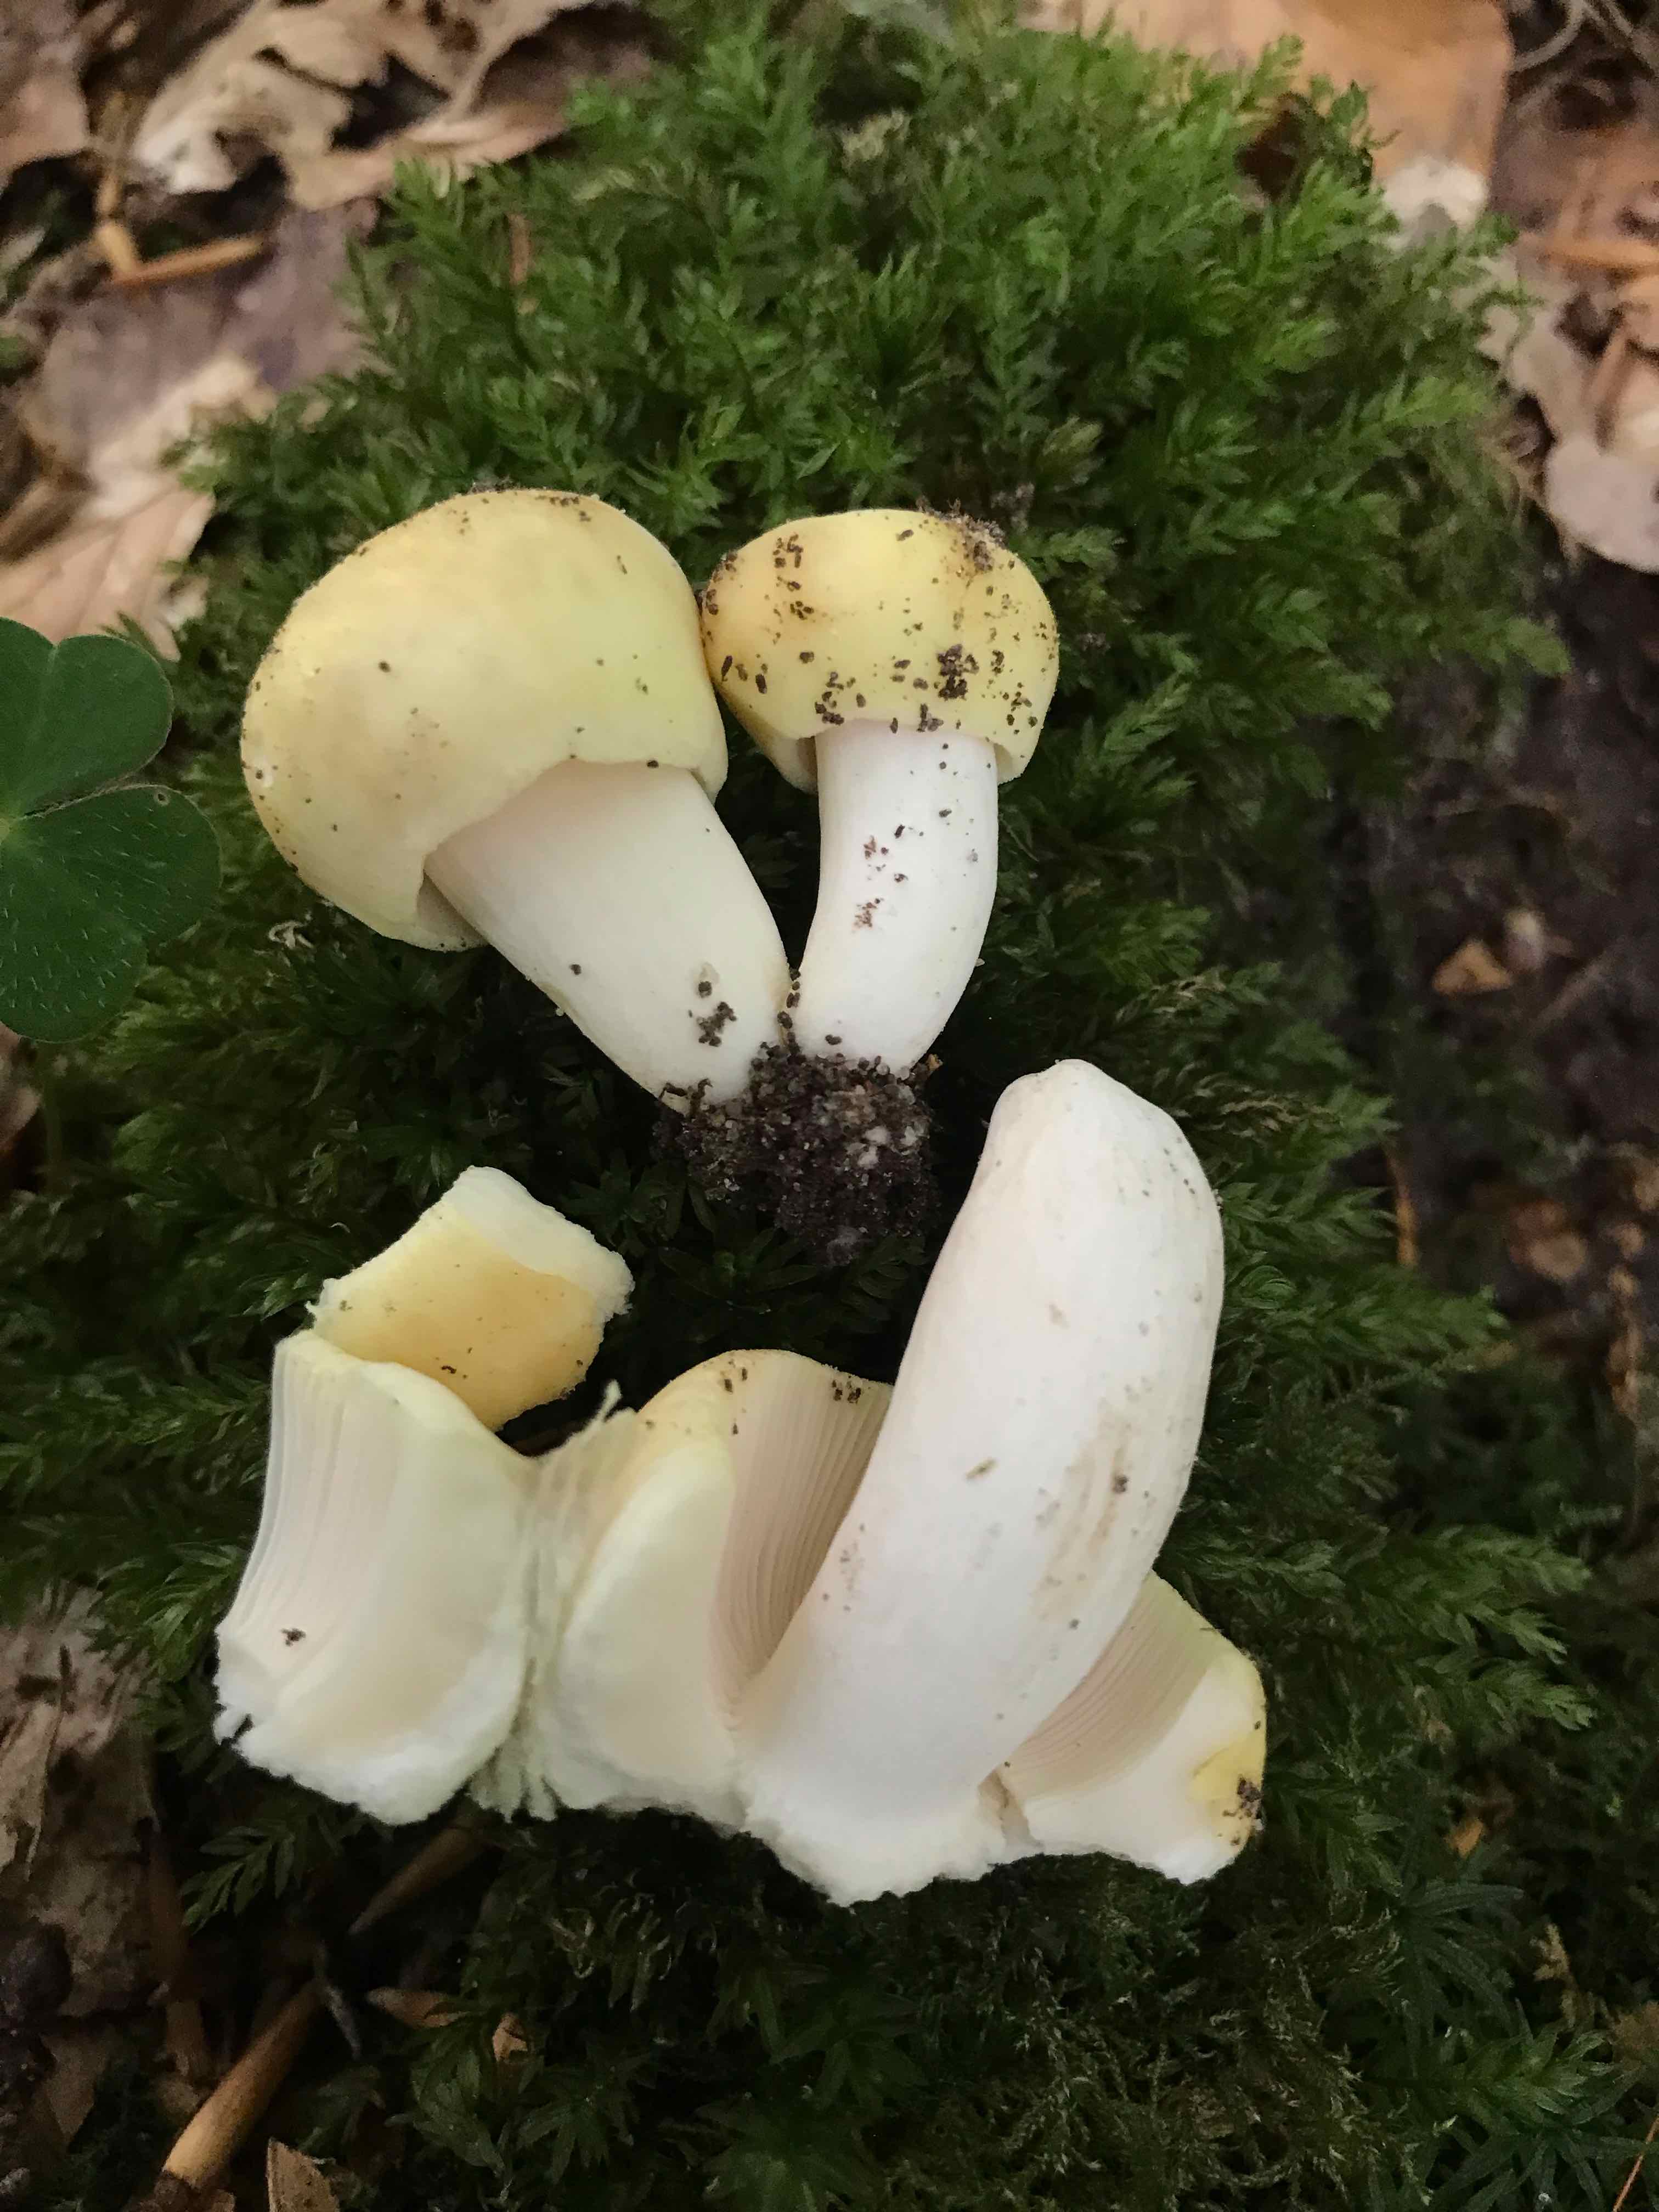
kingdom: Fungi
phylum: Basidiomycota
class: Agaricomycetes
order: Russulales
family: Russulaceae
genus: Russula
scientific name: Russula violeipes
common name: ferskengul skørhat
